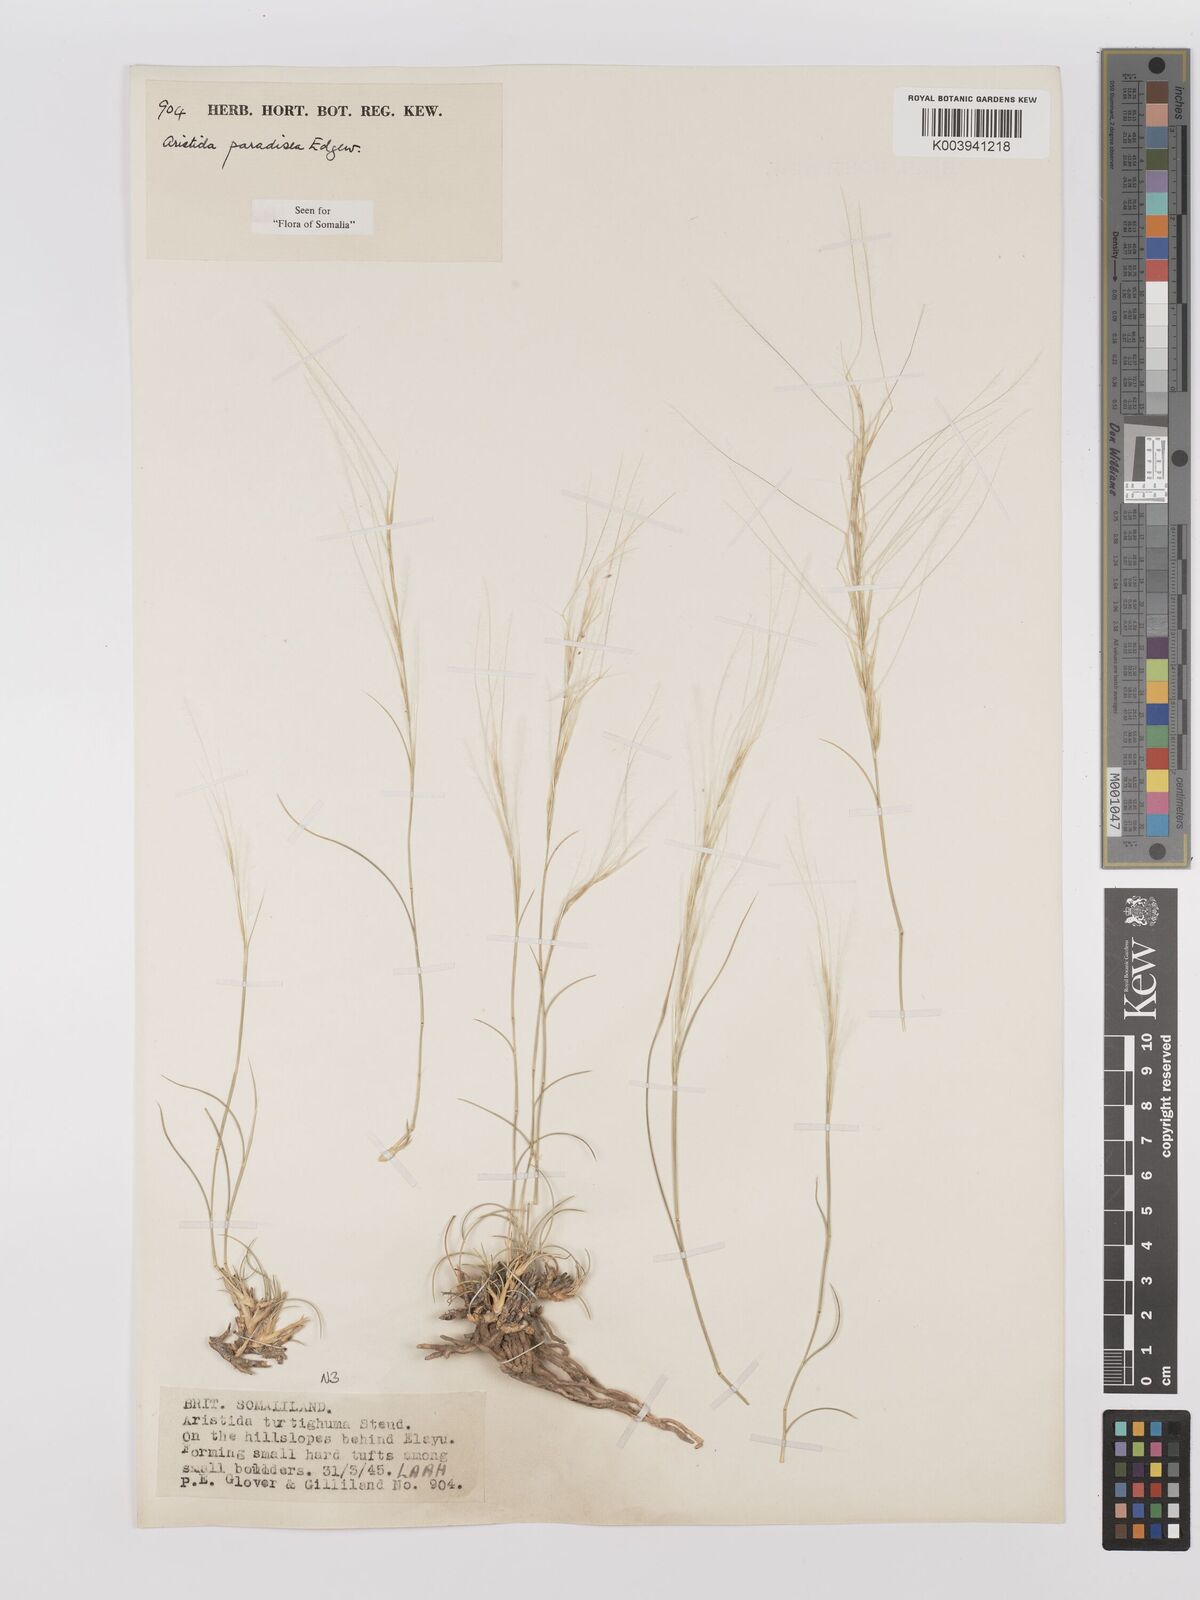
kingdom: Plantae
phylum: Tracheophyta
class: Liliopsida
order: Poales
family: Poaceae
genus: Stipagrostis
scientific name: Stipagrostis paradisea
